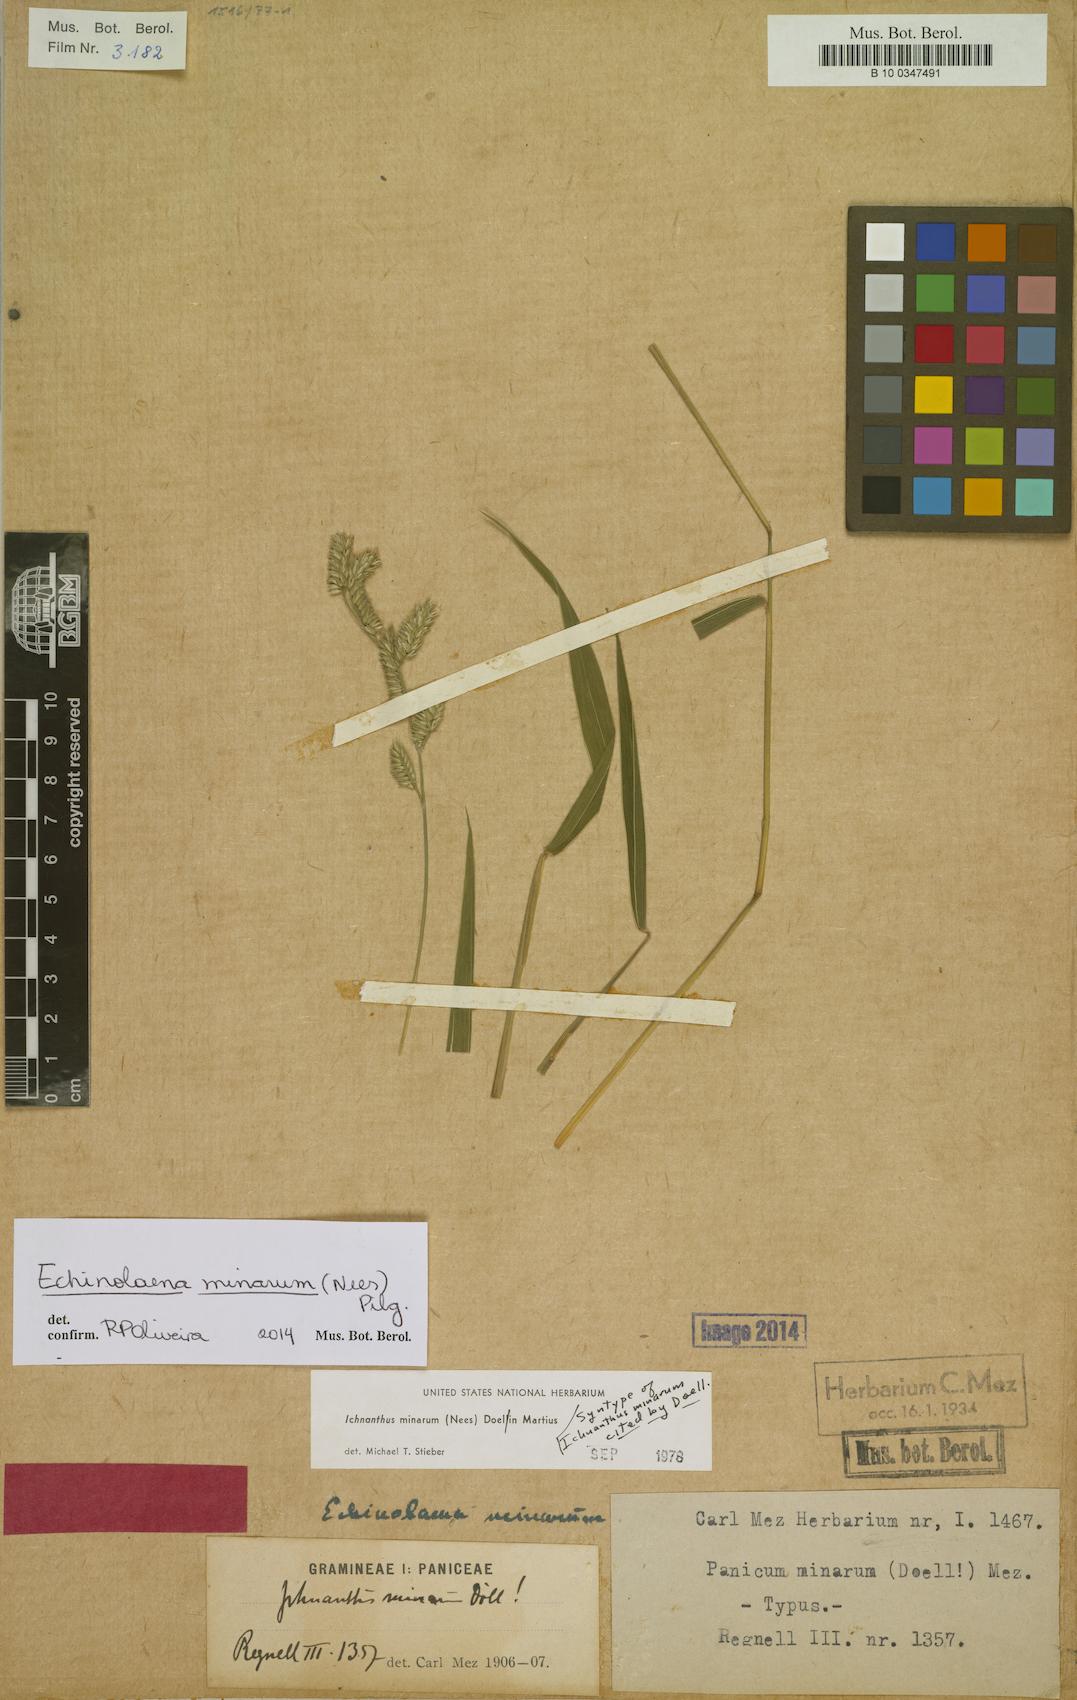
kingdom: Plantae
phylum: Tracheophyta
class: Liliopsida
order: Poales
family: Poaceae
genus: Oedochloa
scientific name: Oedochloa minarum
